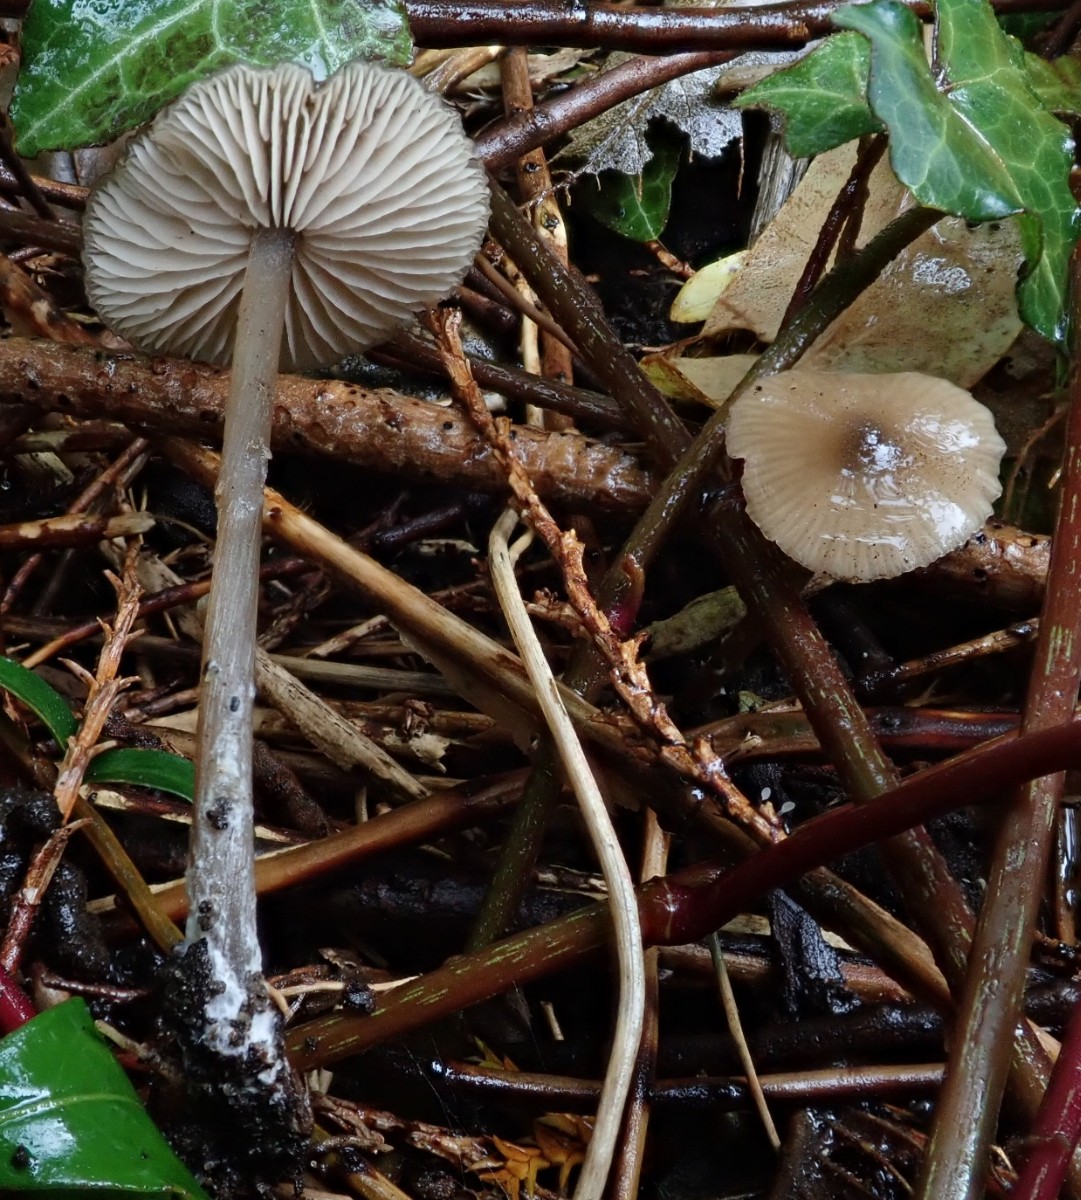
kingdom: Fungi
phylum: Basidiomycota
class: Agaricomycetes
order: Agaricales
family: Entolomataceae
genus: Entoloma
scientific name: Entoloma hebes
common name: krat-rødblad
